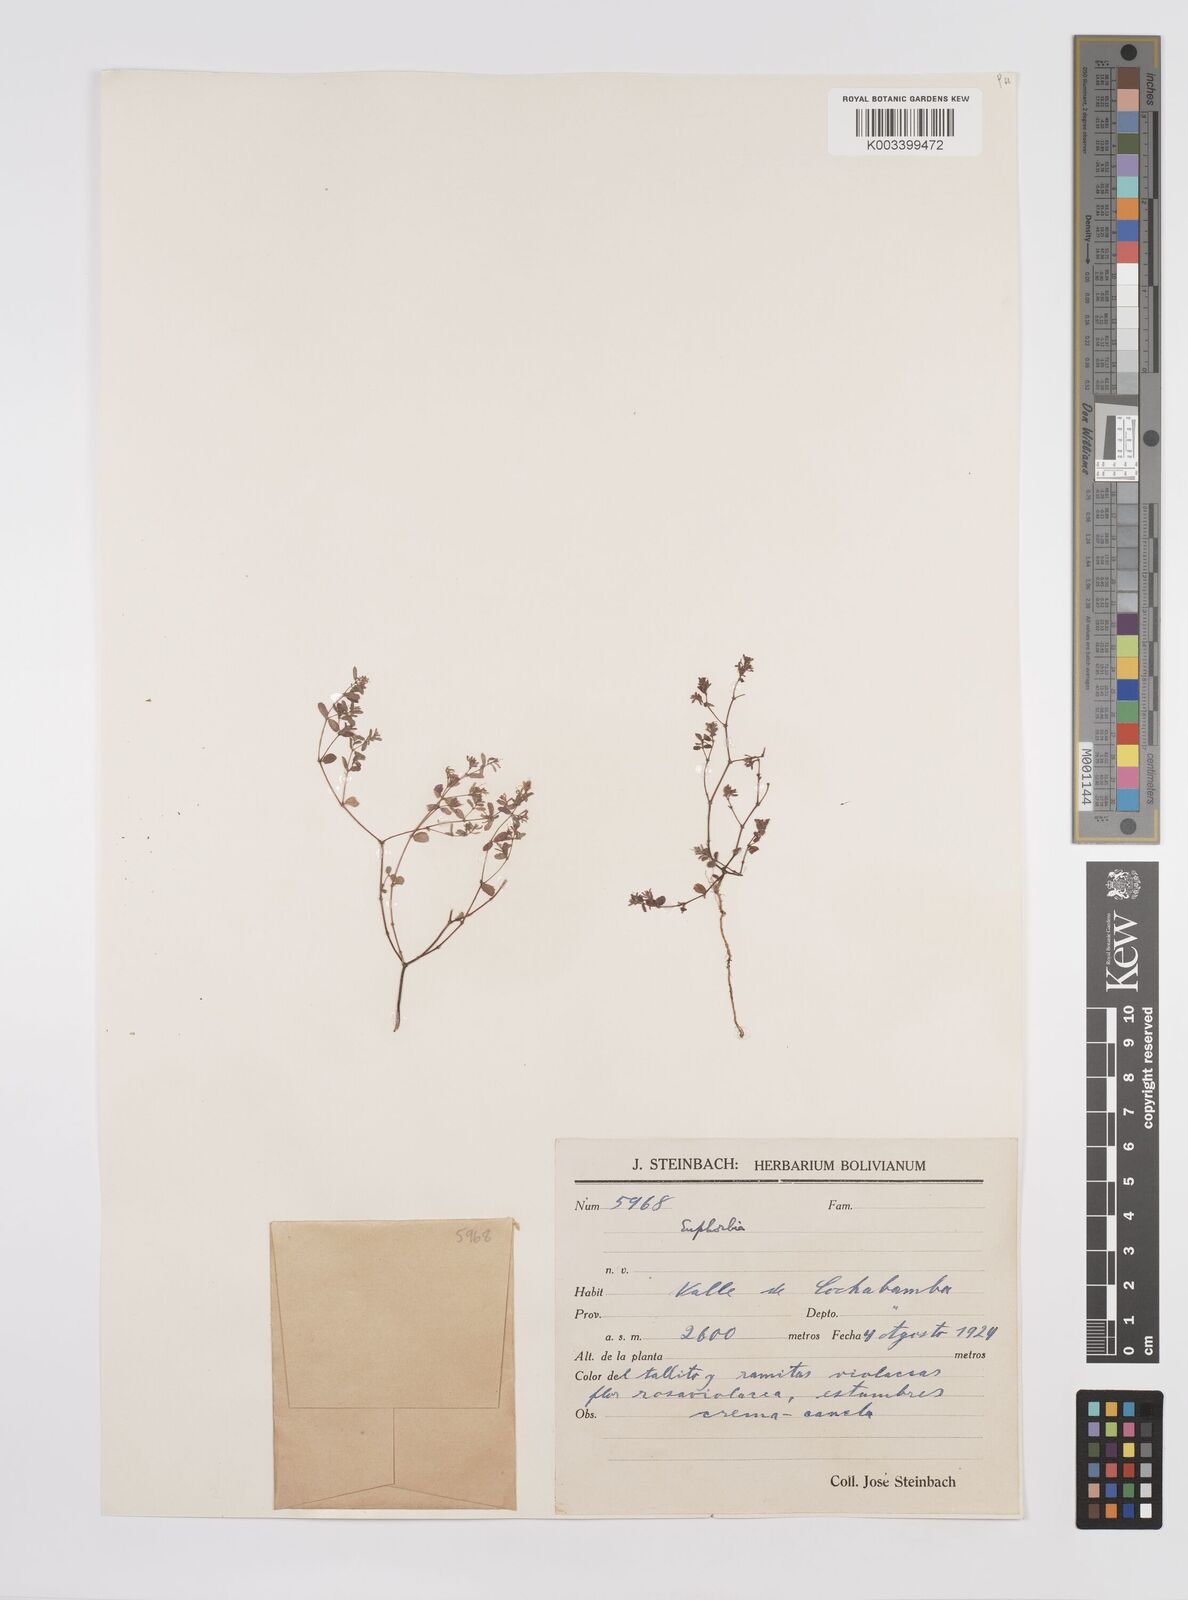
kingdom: Plantae
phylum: Tracheophyta
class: Magnoliopsida
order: Malpighiales
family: Euphorbiaceae
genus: Euphorbia
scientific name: Euphorbia
